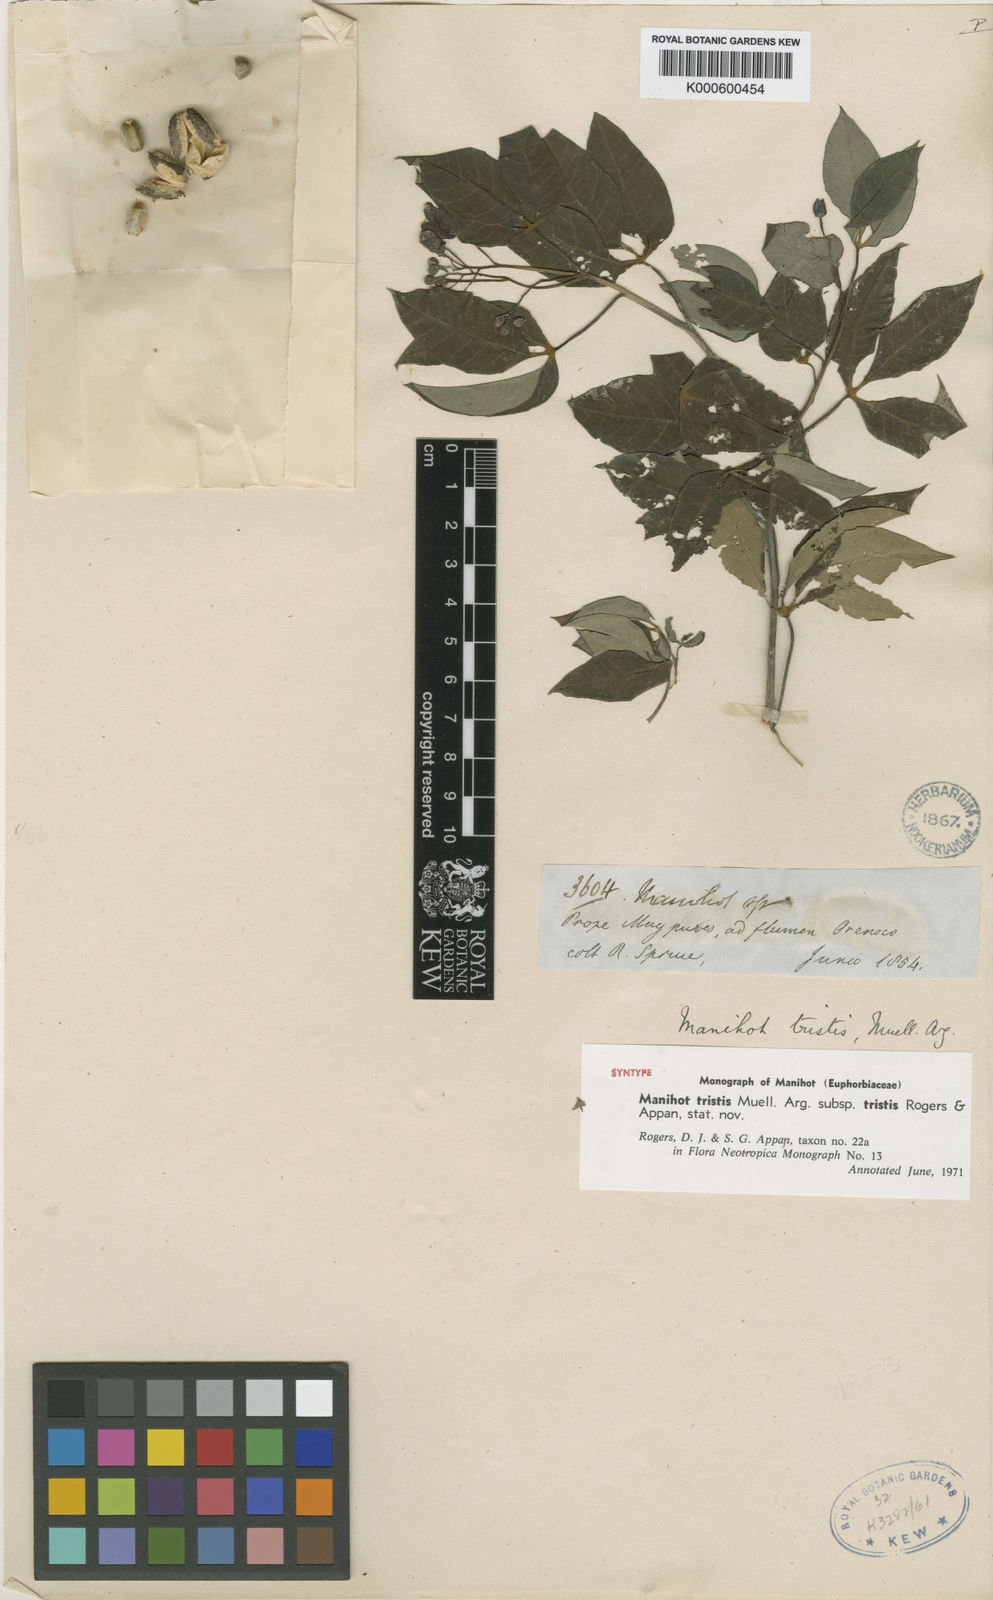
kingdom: Plantae
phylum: Tracheophyta
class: Magnoliopsida
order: Malpighiales
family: Euphorbiaceae
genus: Manihot
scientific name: Manihot
